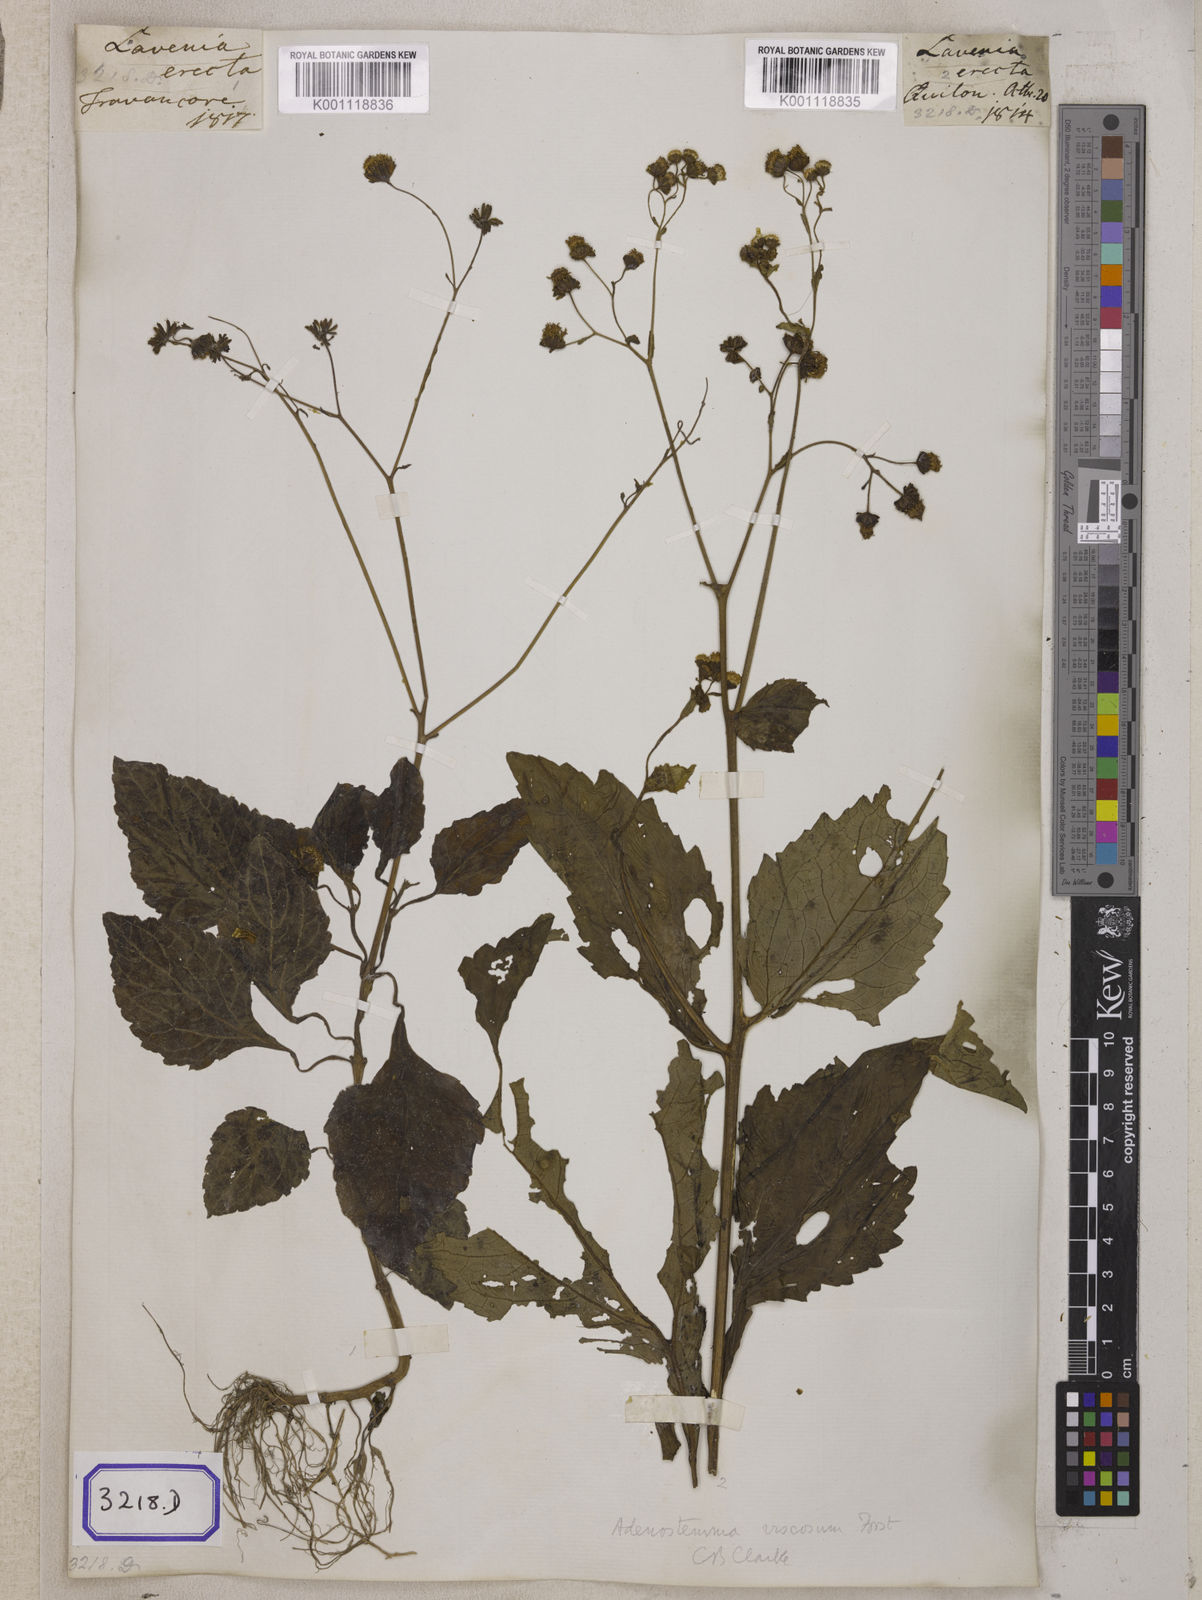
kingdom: Plantae
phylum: Tracheophyta
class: Magnoliopsida
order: Asterales
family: Asteraceae
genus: Adenostemma
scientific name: Adenostemma viscosum
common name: Dungweed
